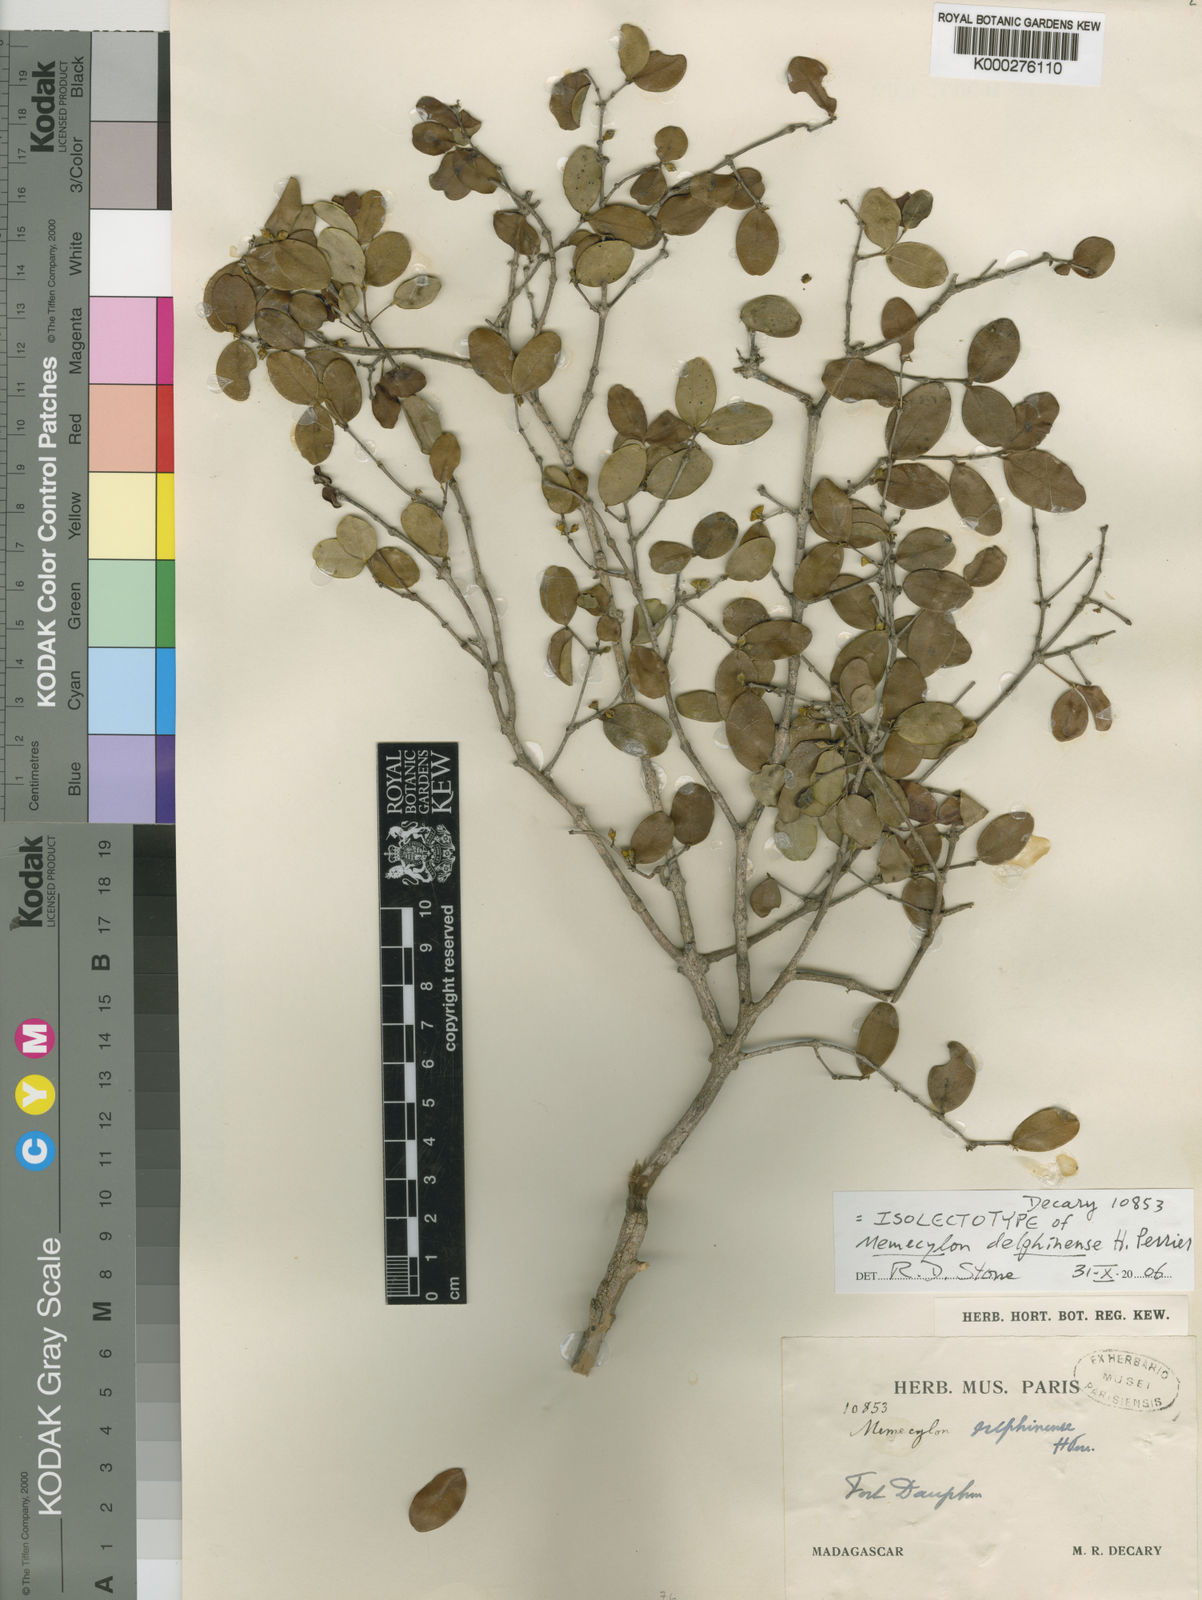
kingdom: Plantae
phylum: Tracheophyta
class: Magnoliopsida
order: Myrtales
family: Melastomataceae
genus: Memecylon
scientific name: Memecylon delphinense
